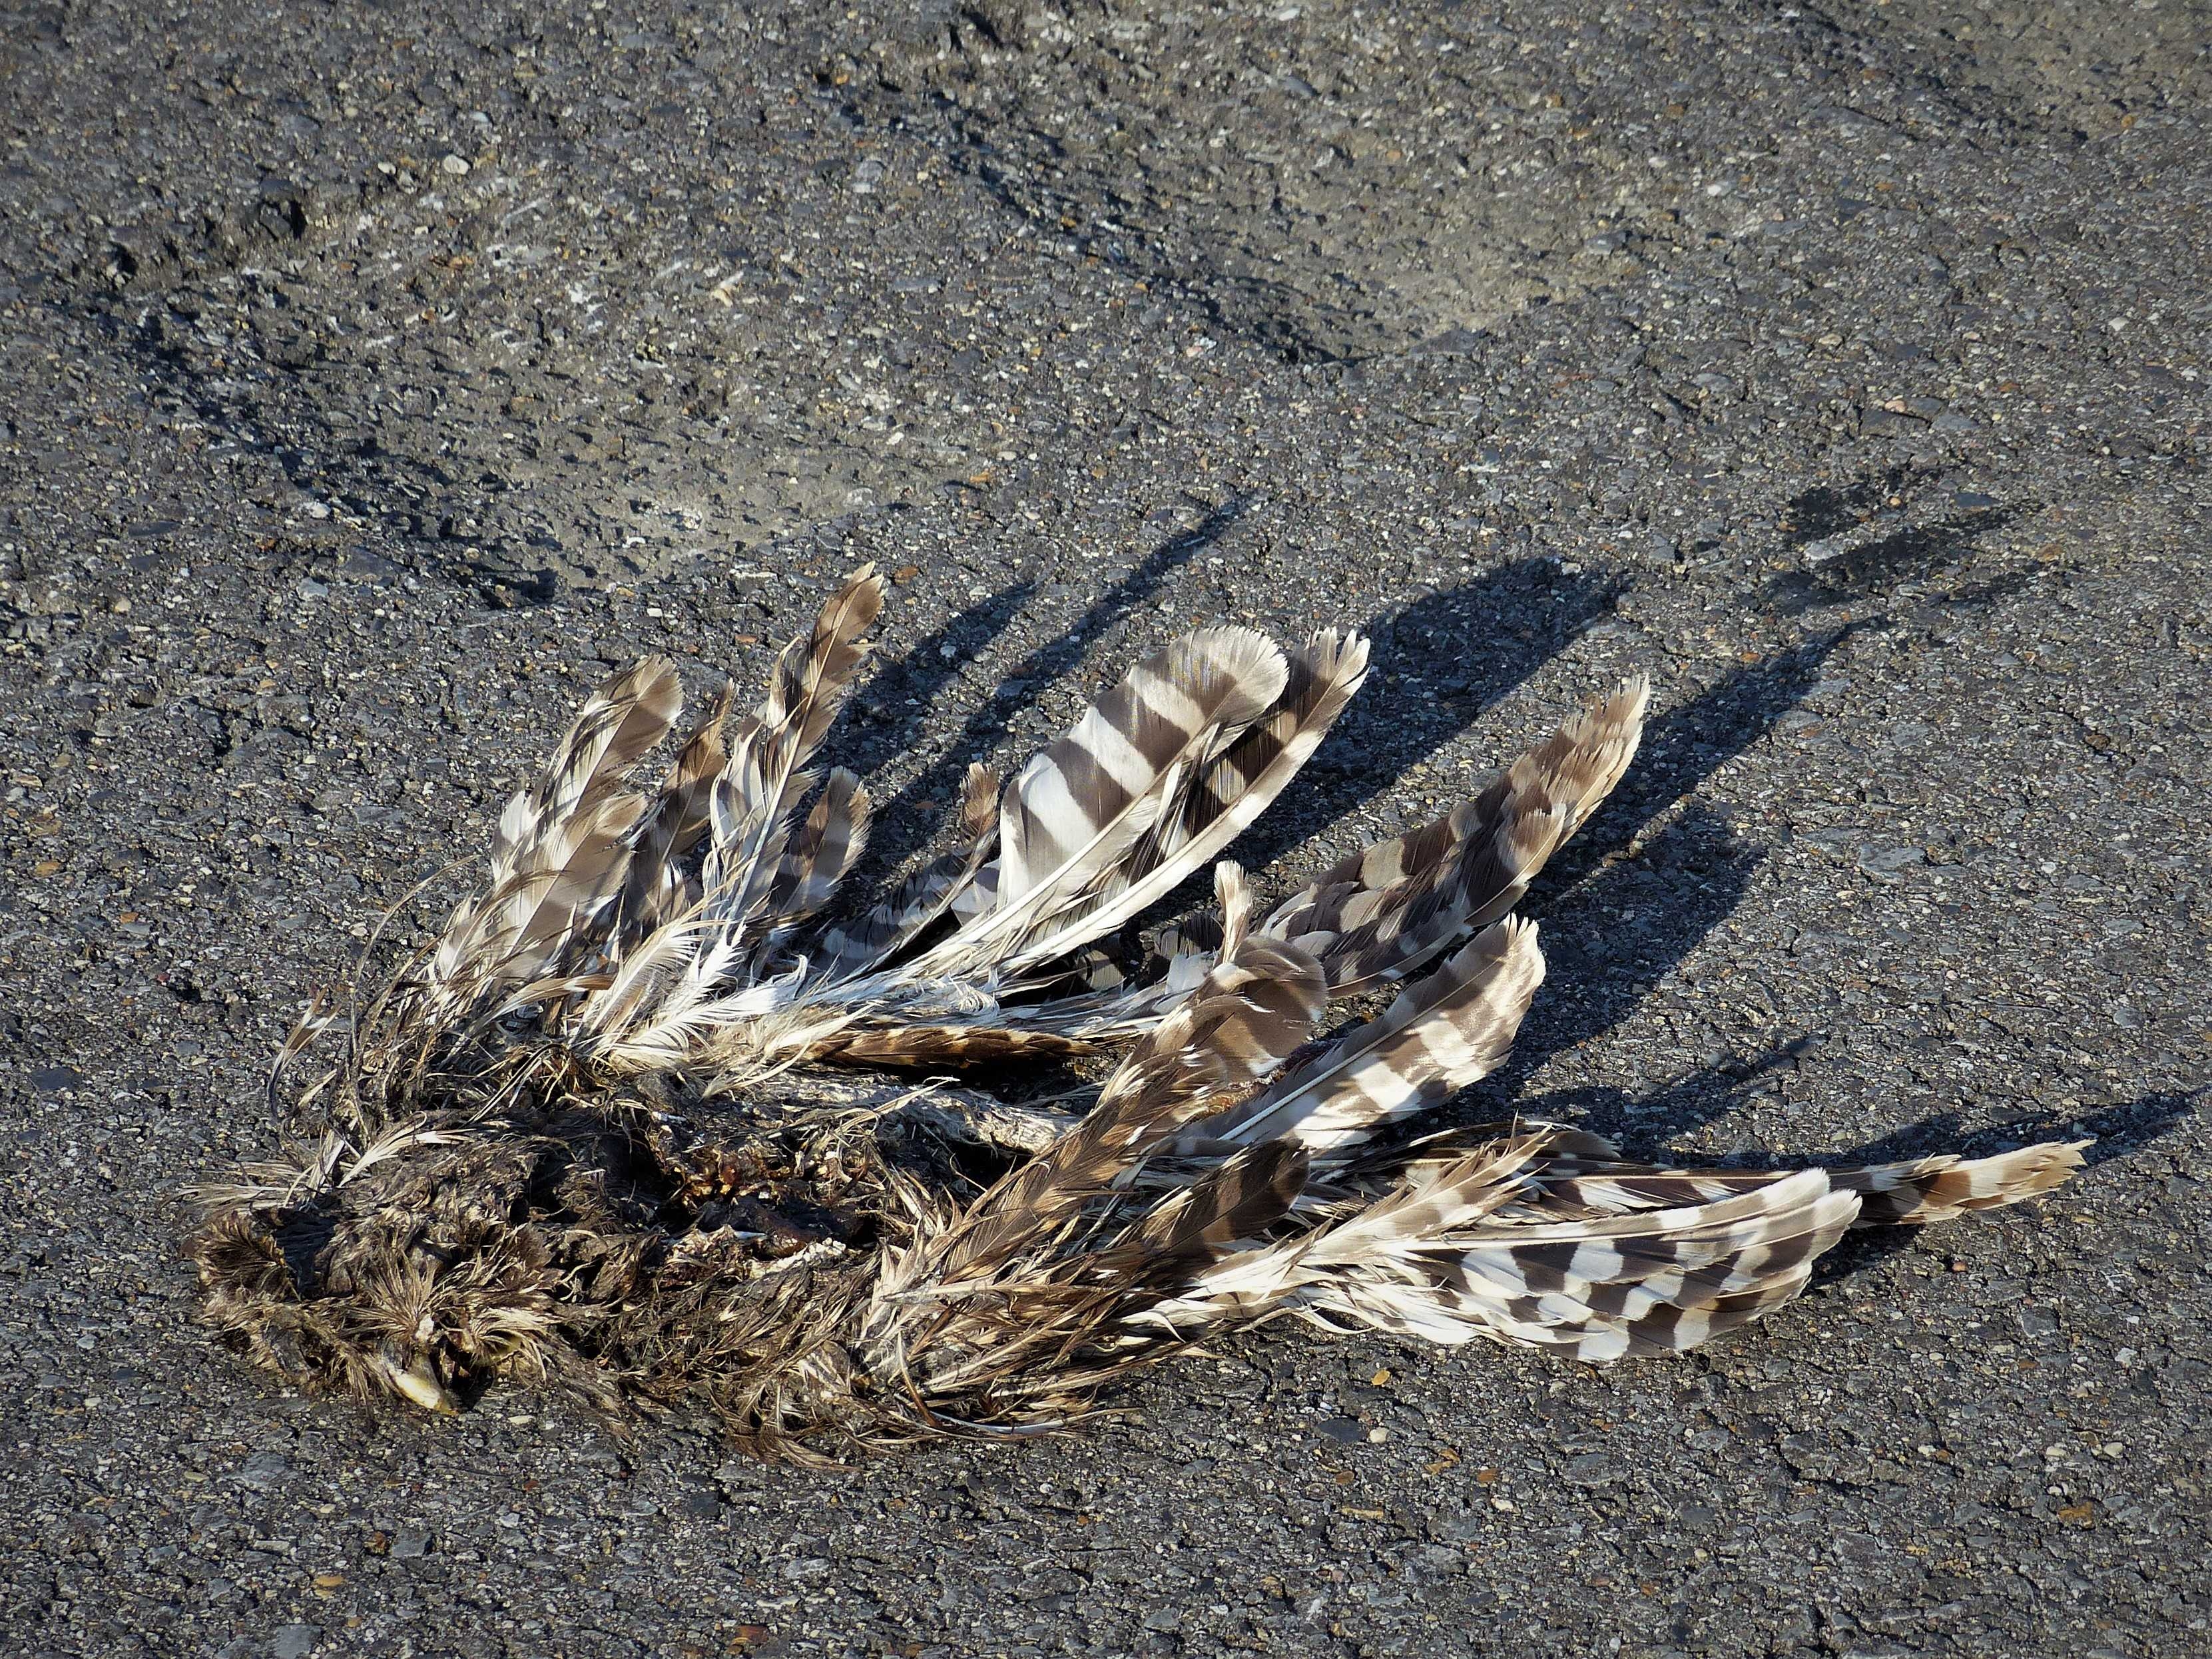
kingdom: Animalia
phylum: Chordata
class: Aves
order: Strigiformes
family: Strigidae
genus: Strix
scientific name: Strix varia
